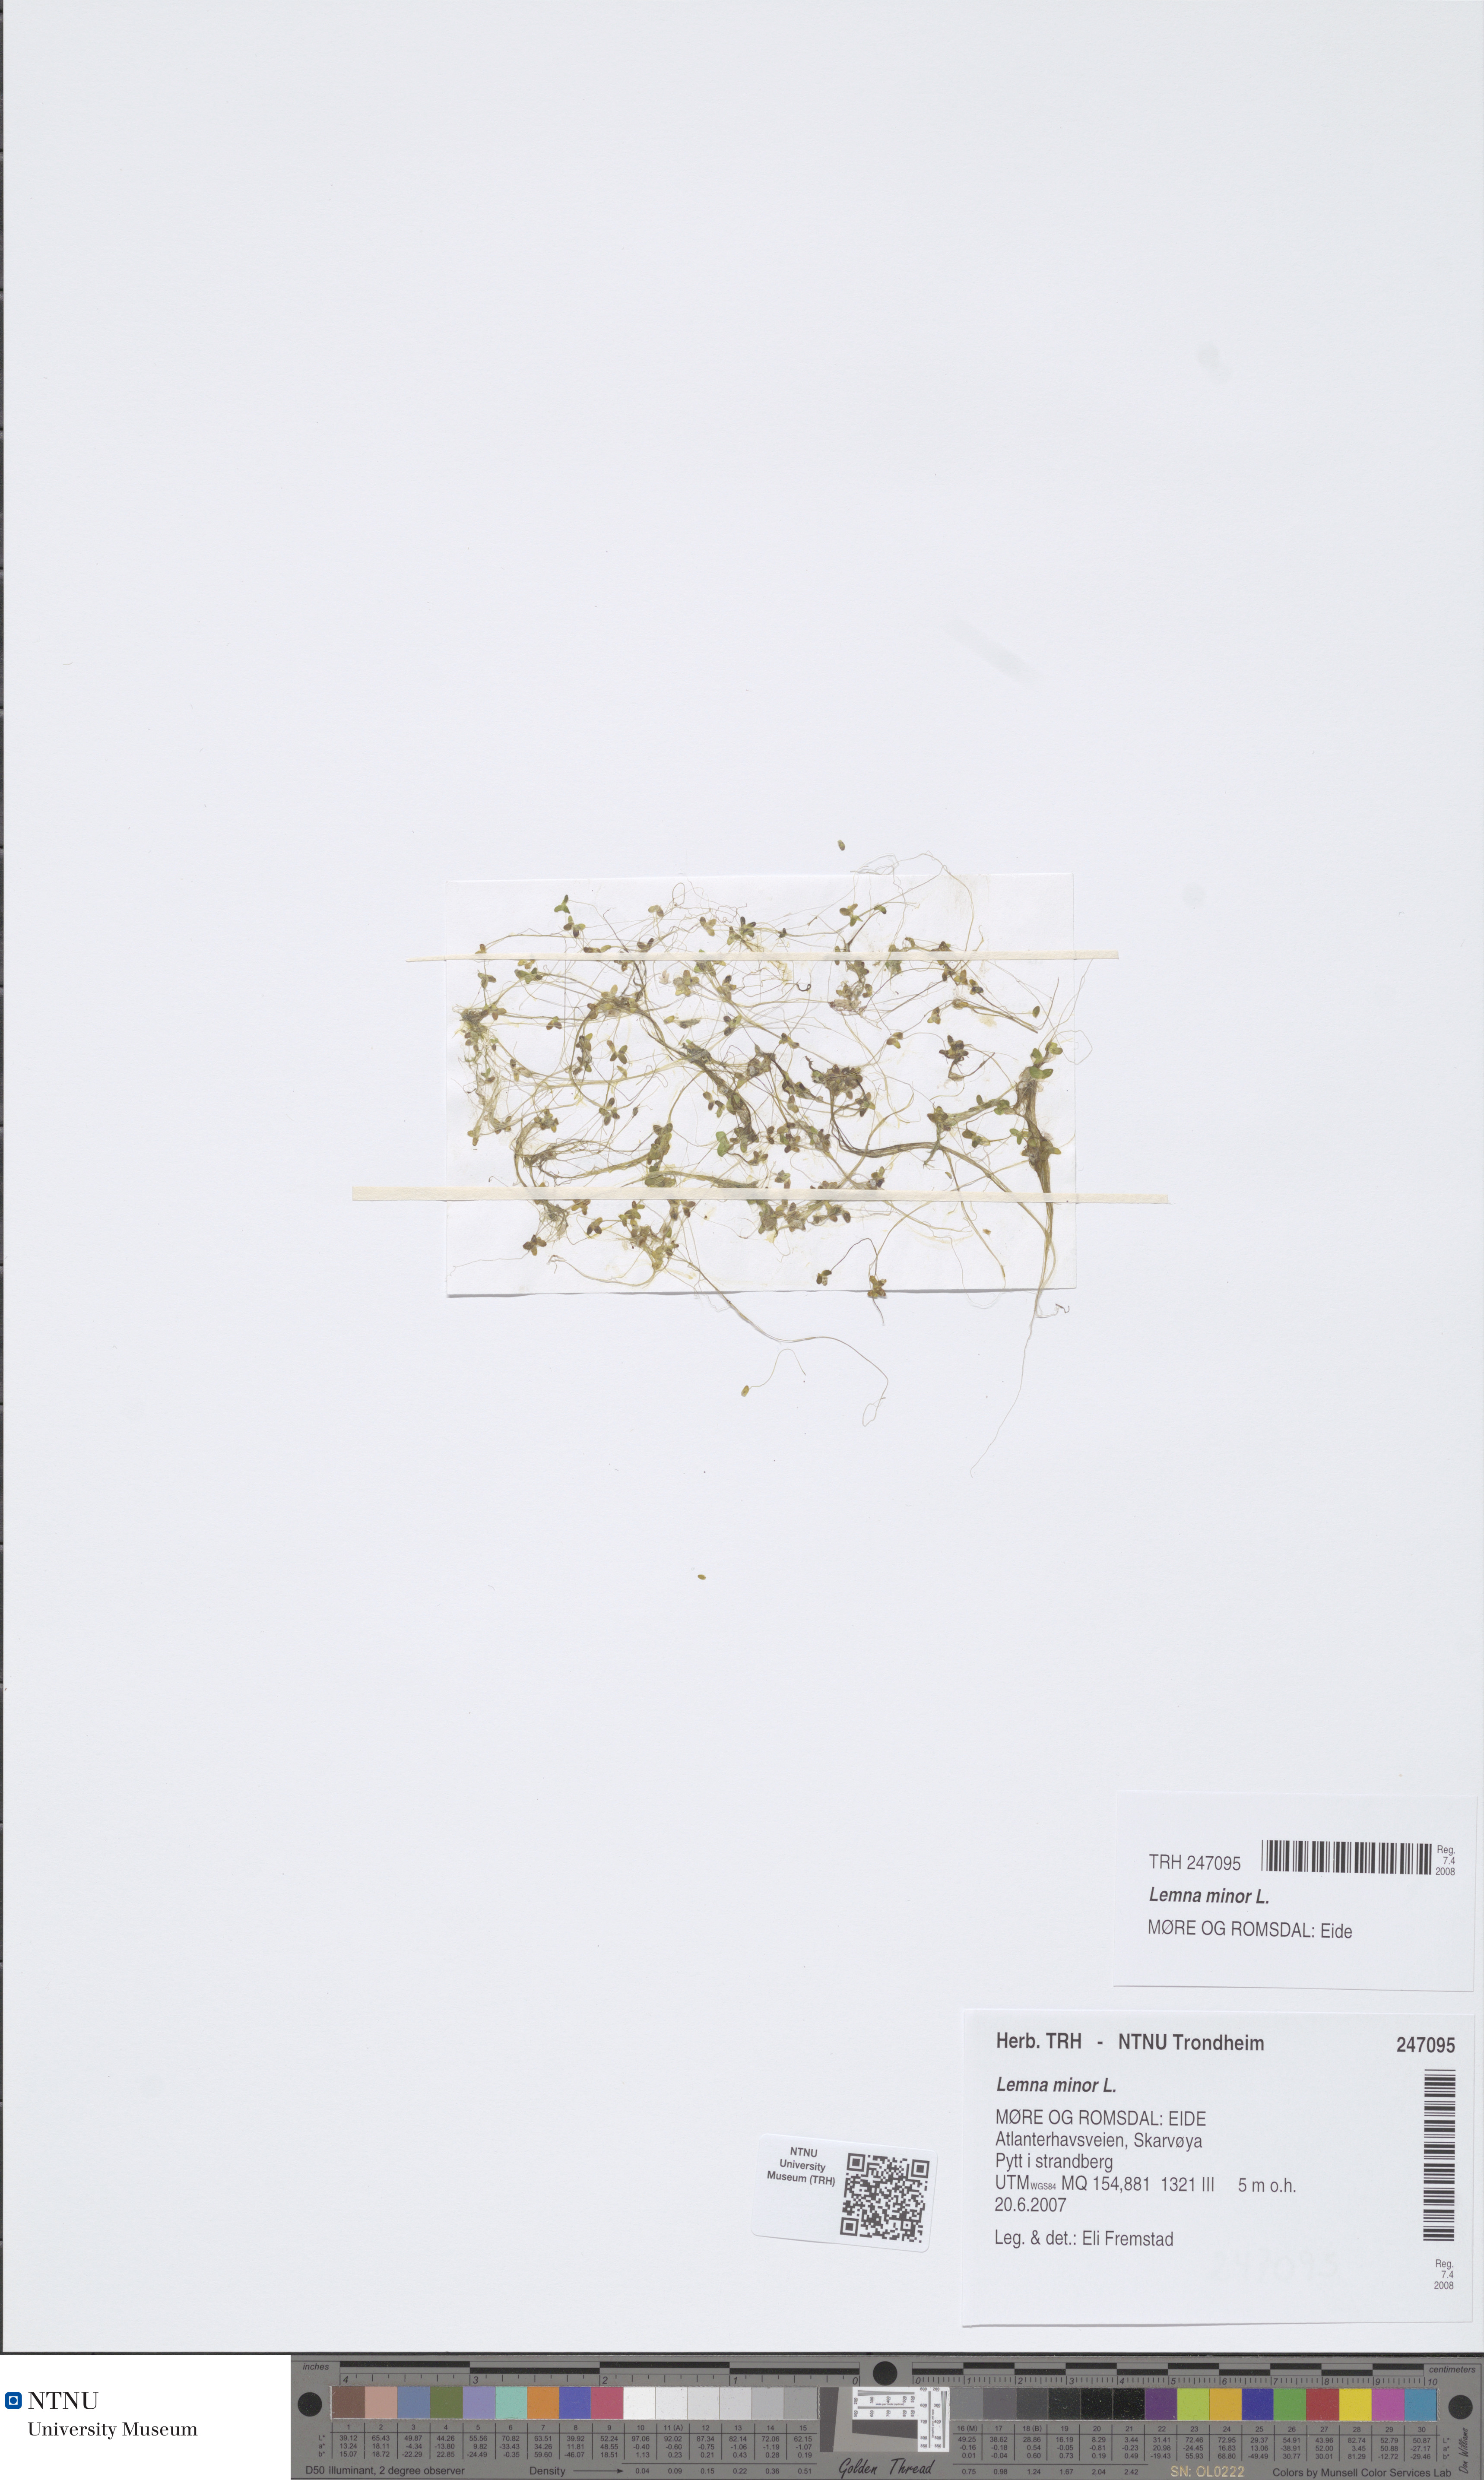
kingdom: Plantae
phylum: Tracheophyta
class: Liliopsida
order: Alismatales
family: Araceae
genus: Lemna
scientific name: Lemna minor
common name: Common duckweed
